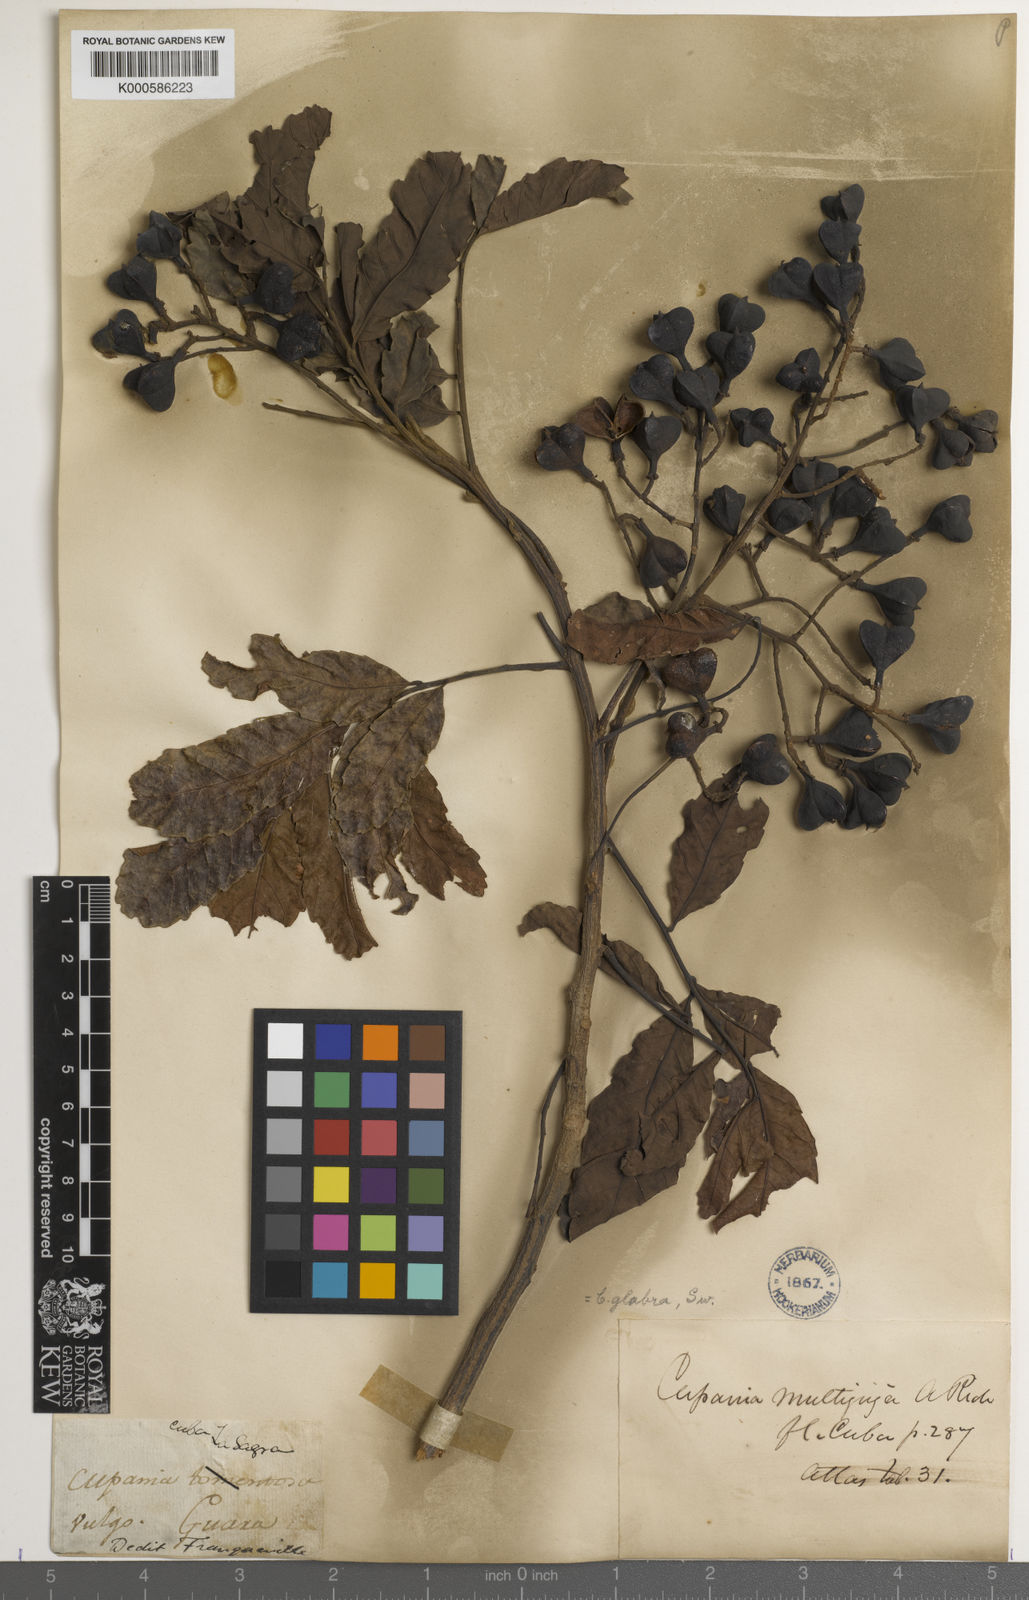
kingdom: Plantae
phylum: Tracheophyta
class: Magnoliopsida
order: Sapindales
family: Sapindaceae
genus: Cupania
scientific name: Cupania glabra
